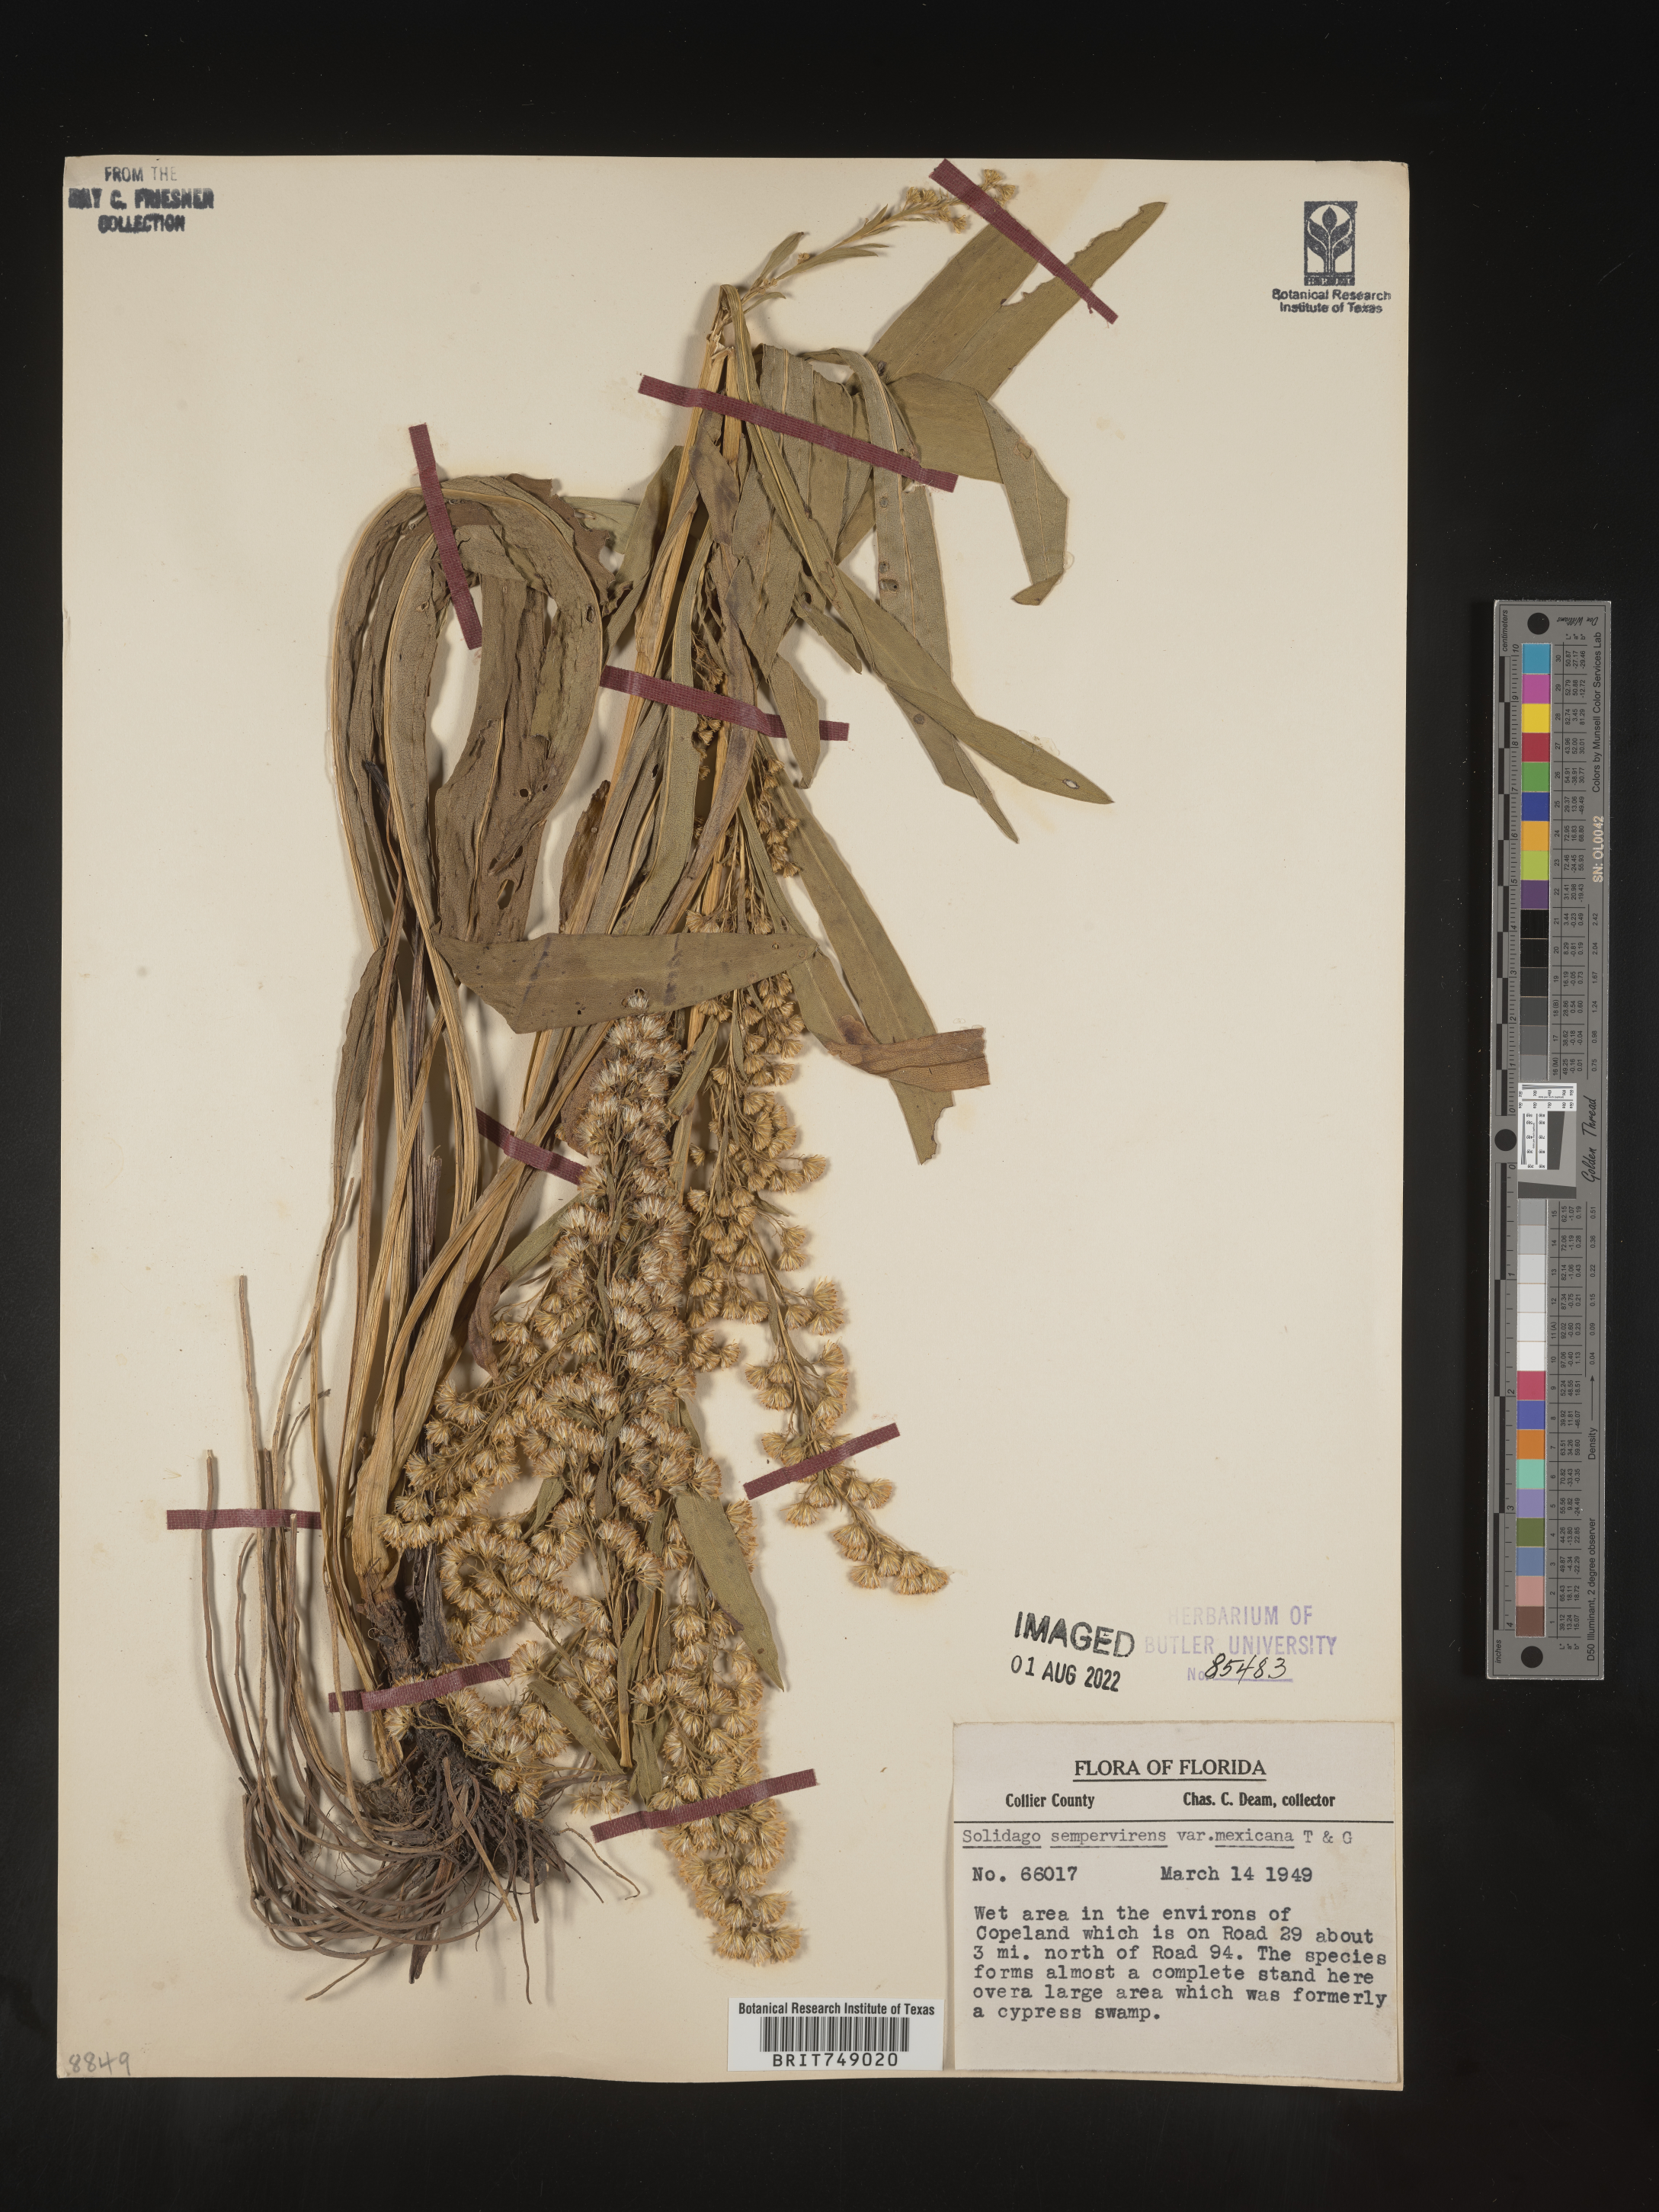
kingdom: Plantae
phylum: Tracheophyta
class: Magnoliopsida
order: Asterales
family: Asteraceae
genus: Solidago
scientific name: Solidago sempervirens
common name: Salt-marsh goldenrod
